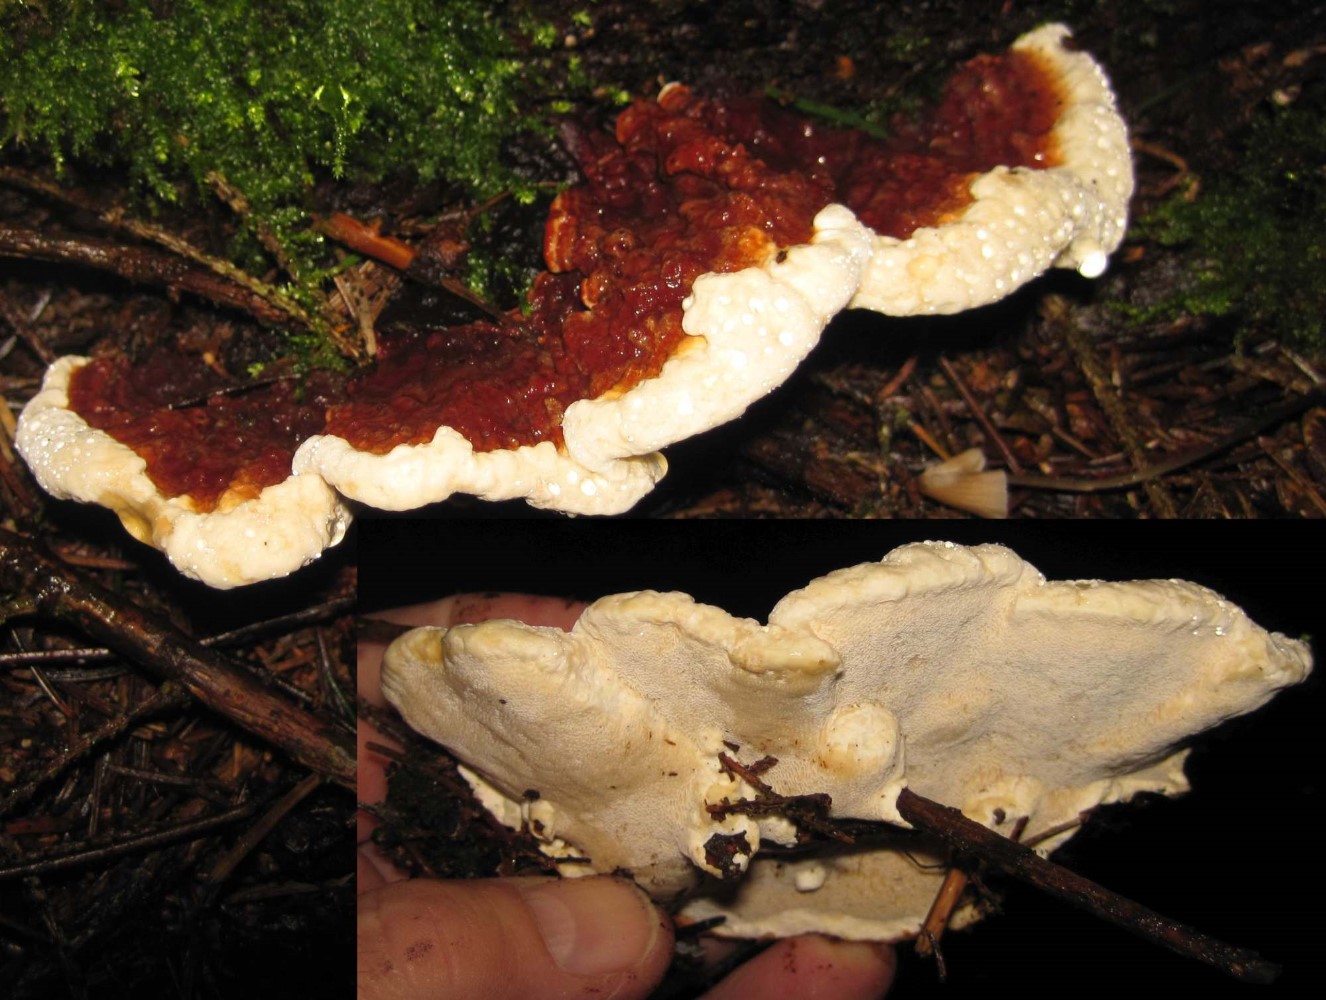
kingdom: Fungi
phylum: Basidiomycota
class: Agaricomycetes
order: Russulales
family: Bondarzewiaceae
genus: Heterobasidion
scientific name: Heterobasidion annosum
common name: almindelig rodfordærver
